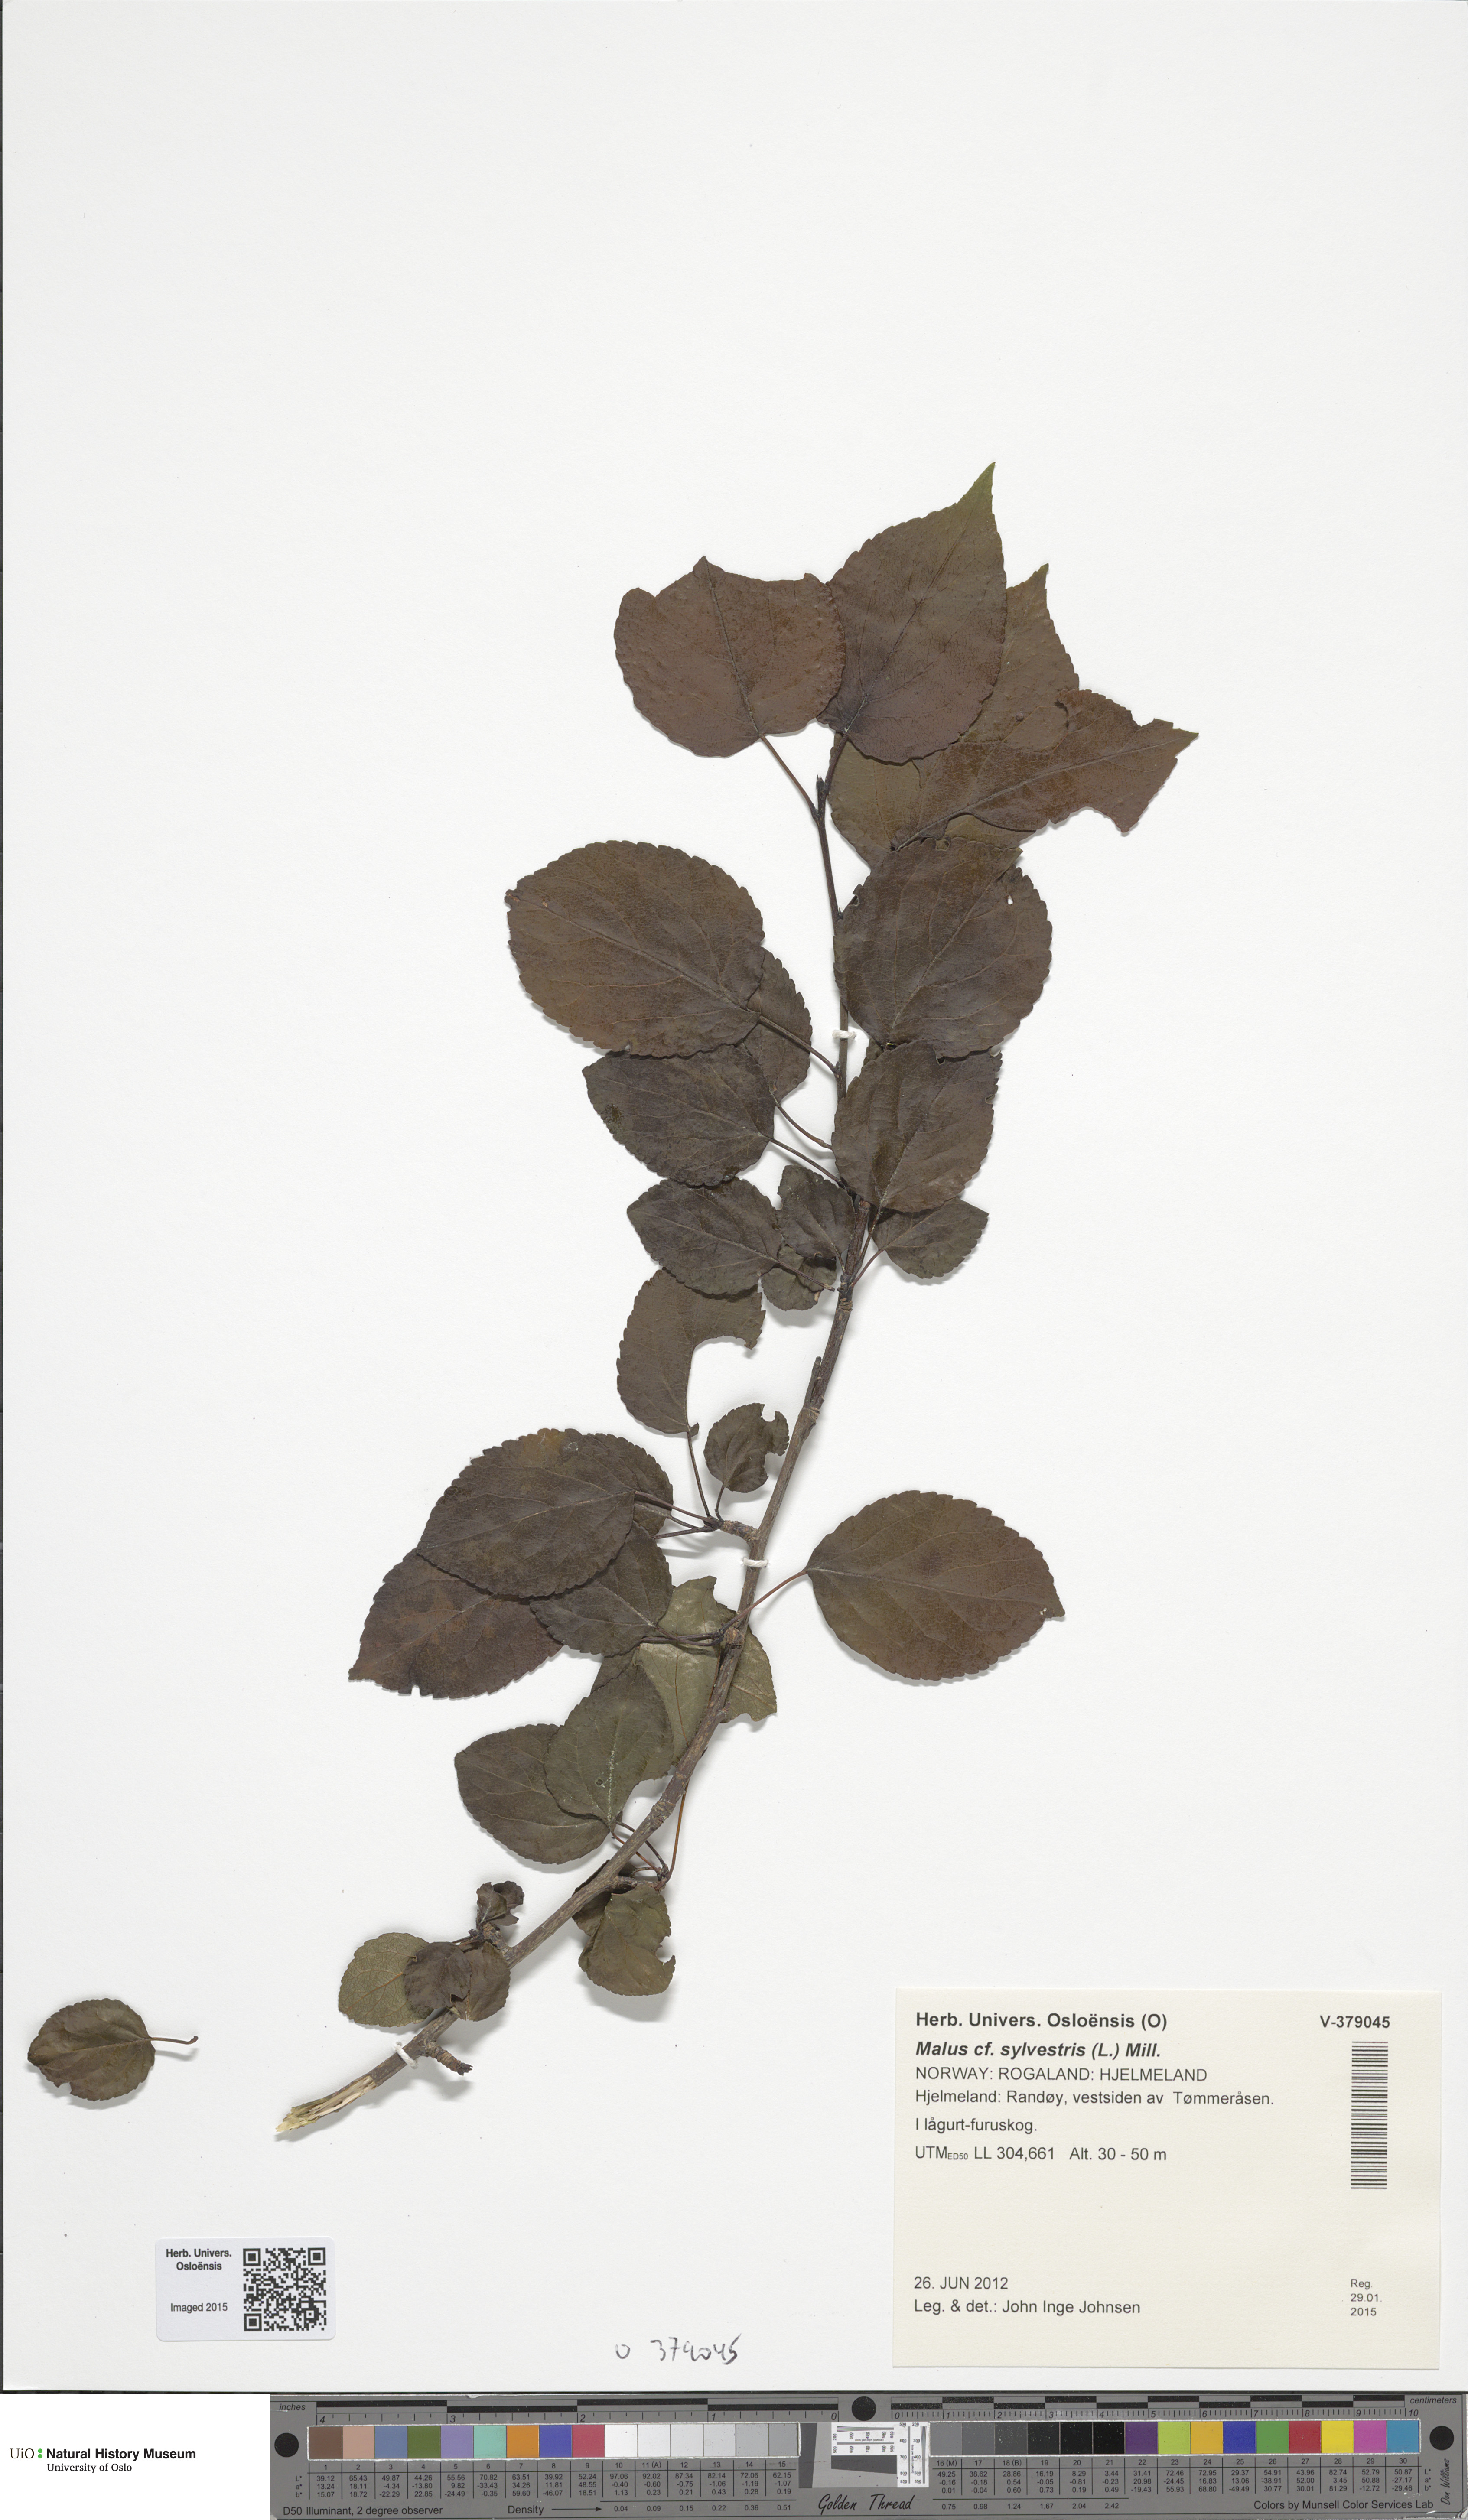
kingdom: Plantae
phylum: Tracheophyta
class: Magnoliopsida
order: Rosales
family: Rosaceae
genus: Malus
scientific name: Malus sylvestris
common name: Crab apple
